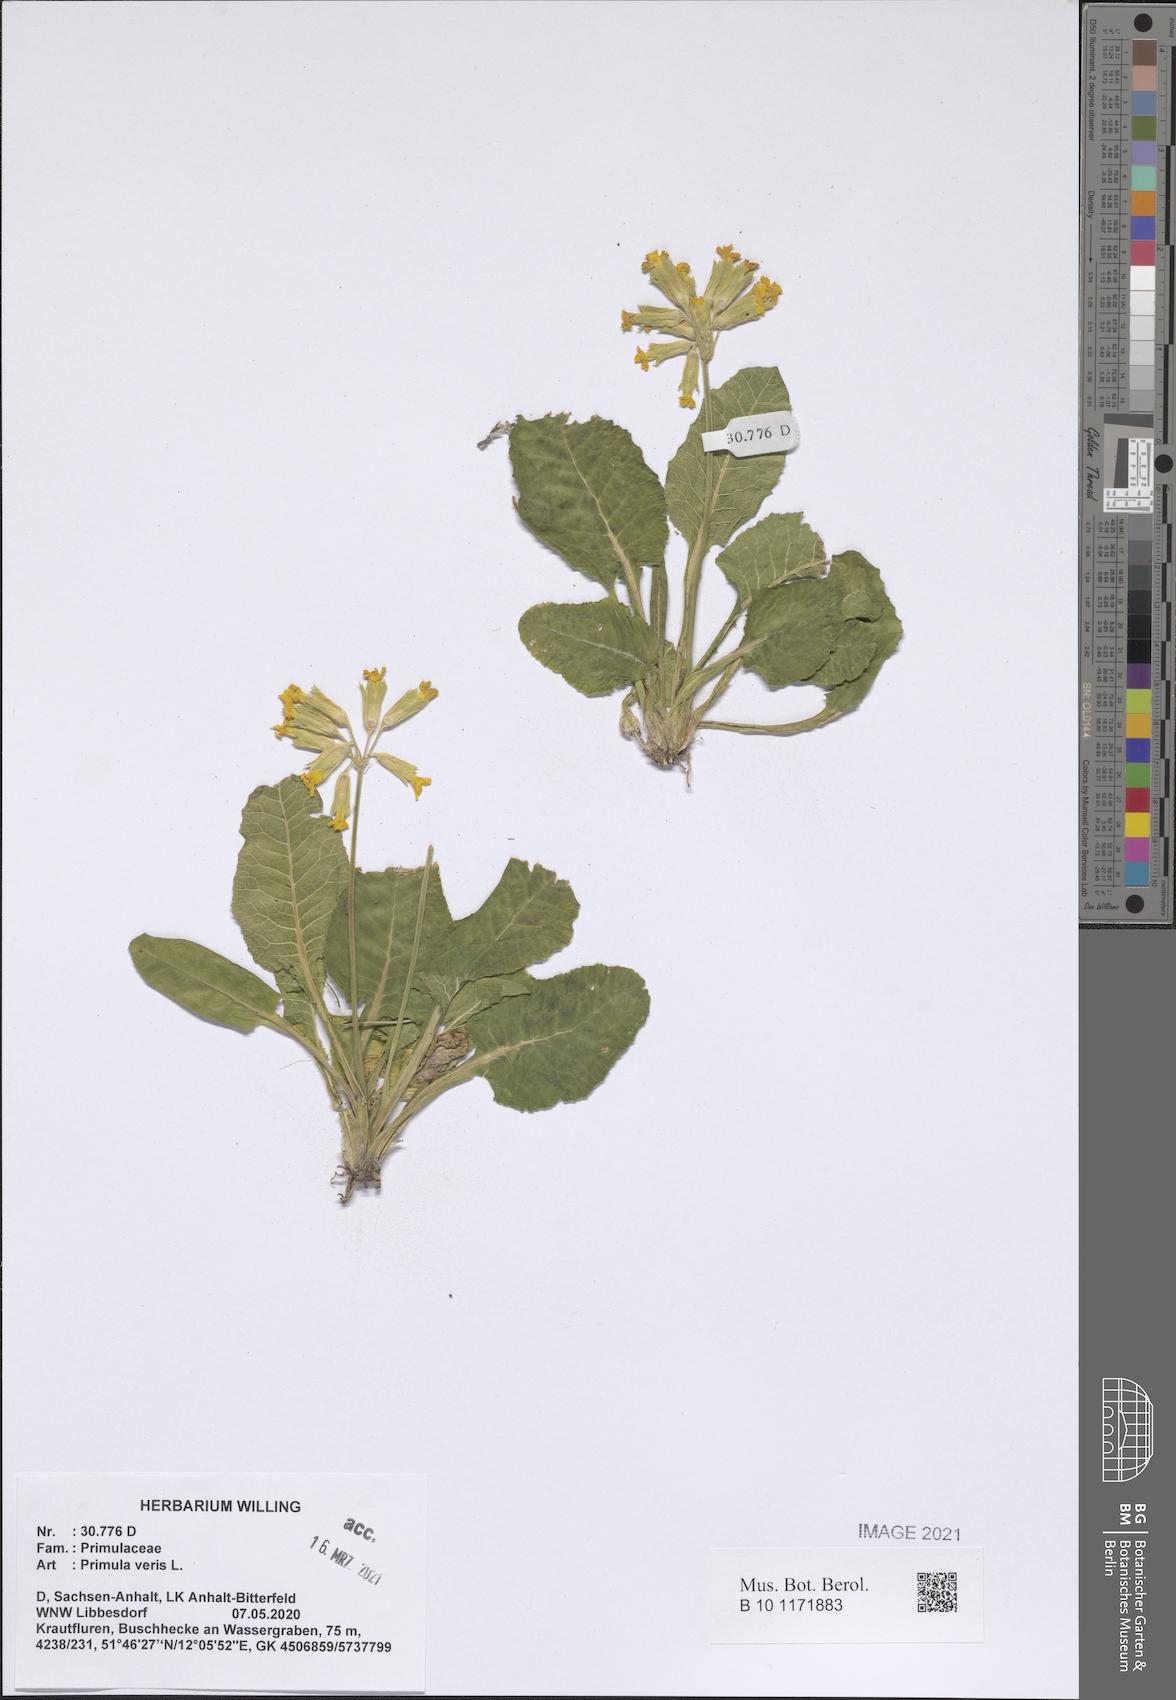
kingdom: Plantae
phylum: Tracheophyta
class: Magnoliopsida
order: Ericales
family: Primulaceae
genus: Primula
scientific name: Primula veris
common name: Cowslip
